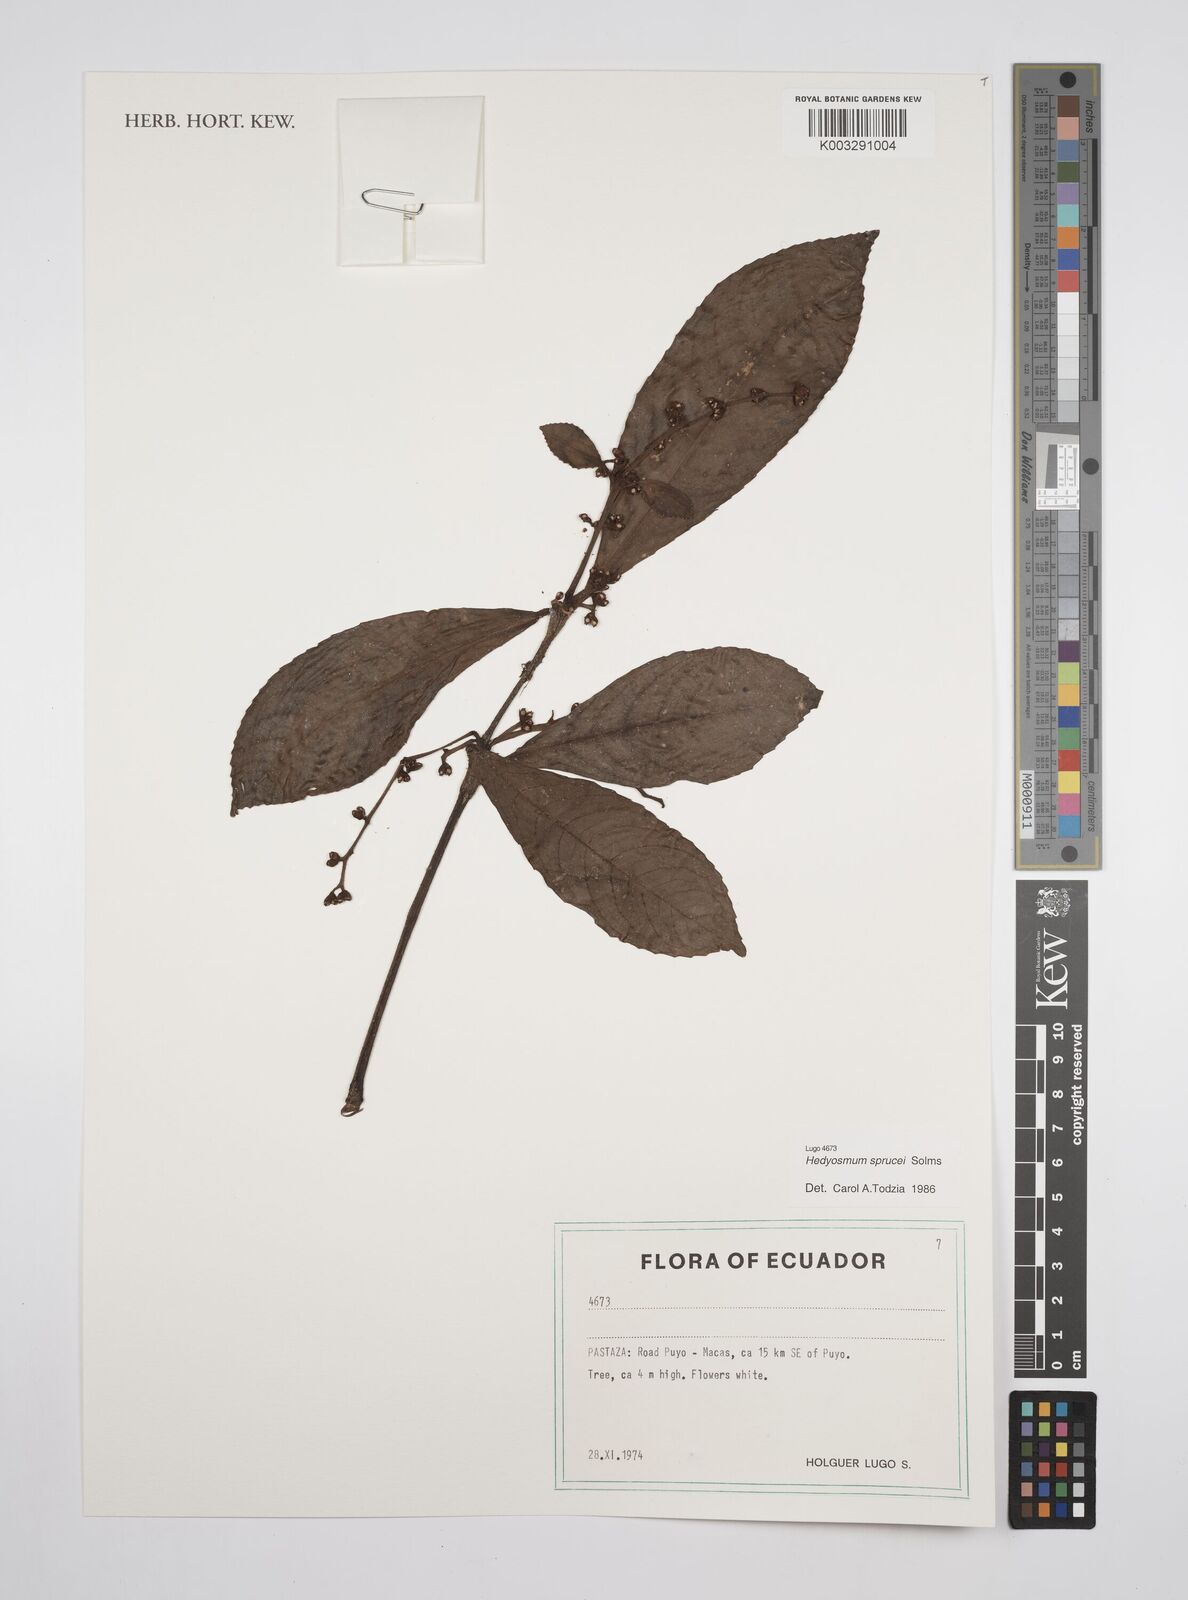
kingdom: Plantae
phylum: Tracheophyta
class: Magnoliopsida
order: Chloranthales
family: Chloranthaceae
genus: Hedyosmum
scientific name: Hedyosmum sprucei
